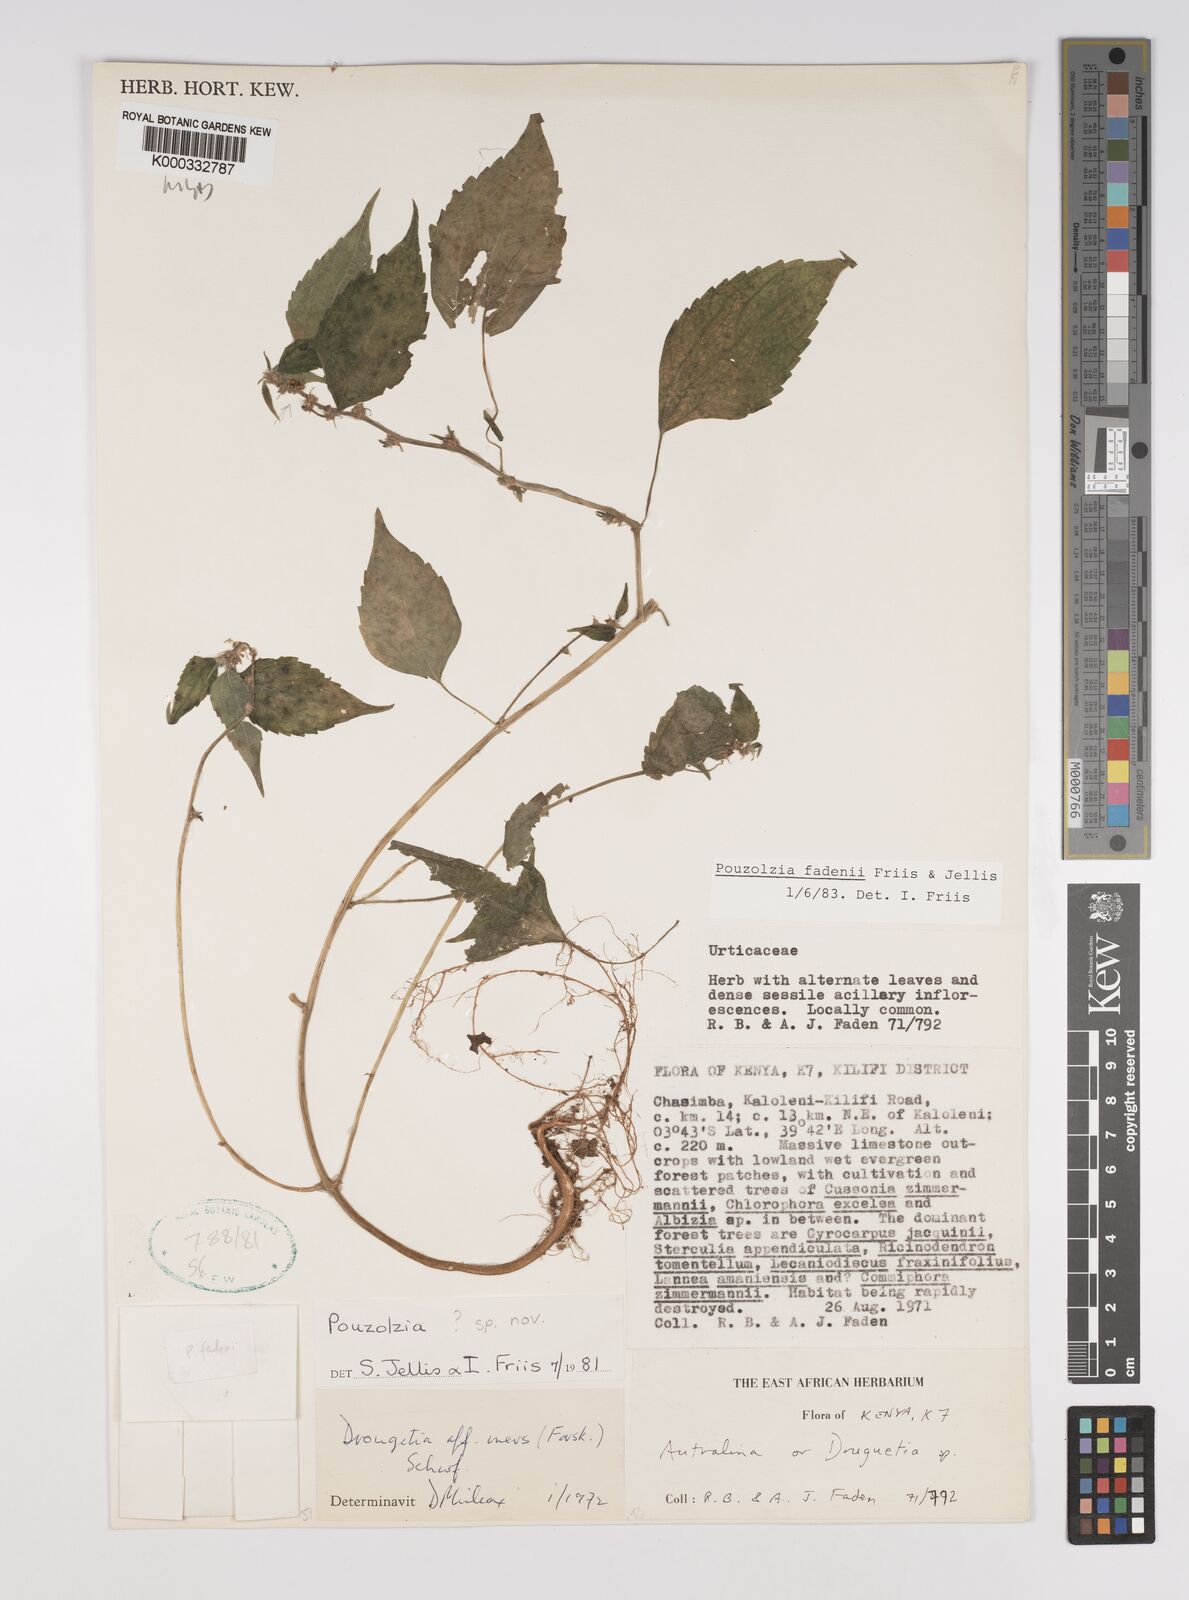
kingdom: Plantae
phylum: Tracheophyta
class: Magnoliopsida
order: Rosales
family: Urticaceae
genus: Pouzolzia
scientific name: Pouzolzia fadenii
